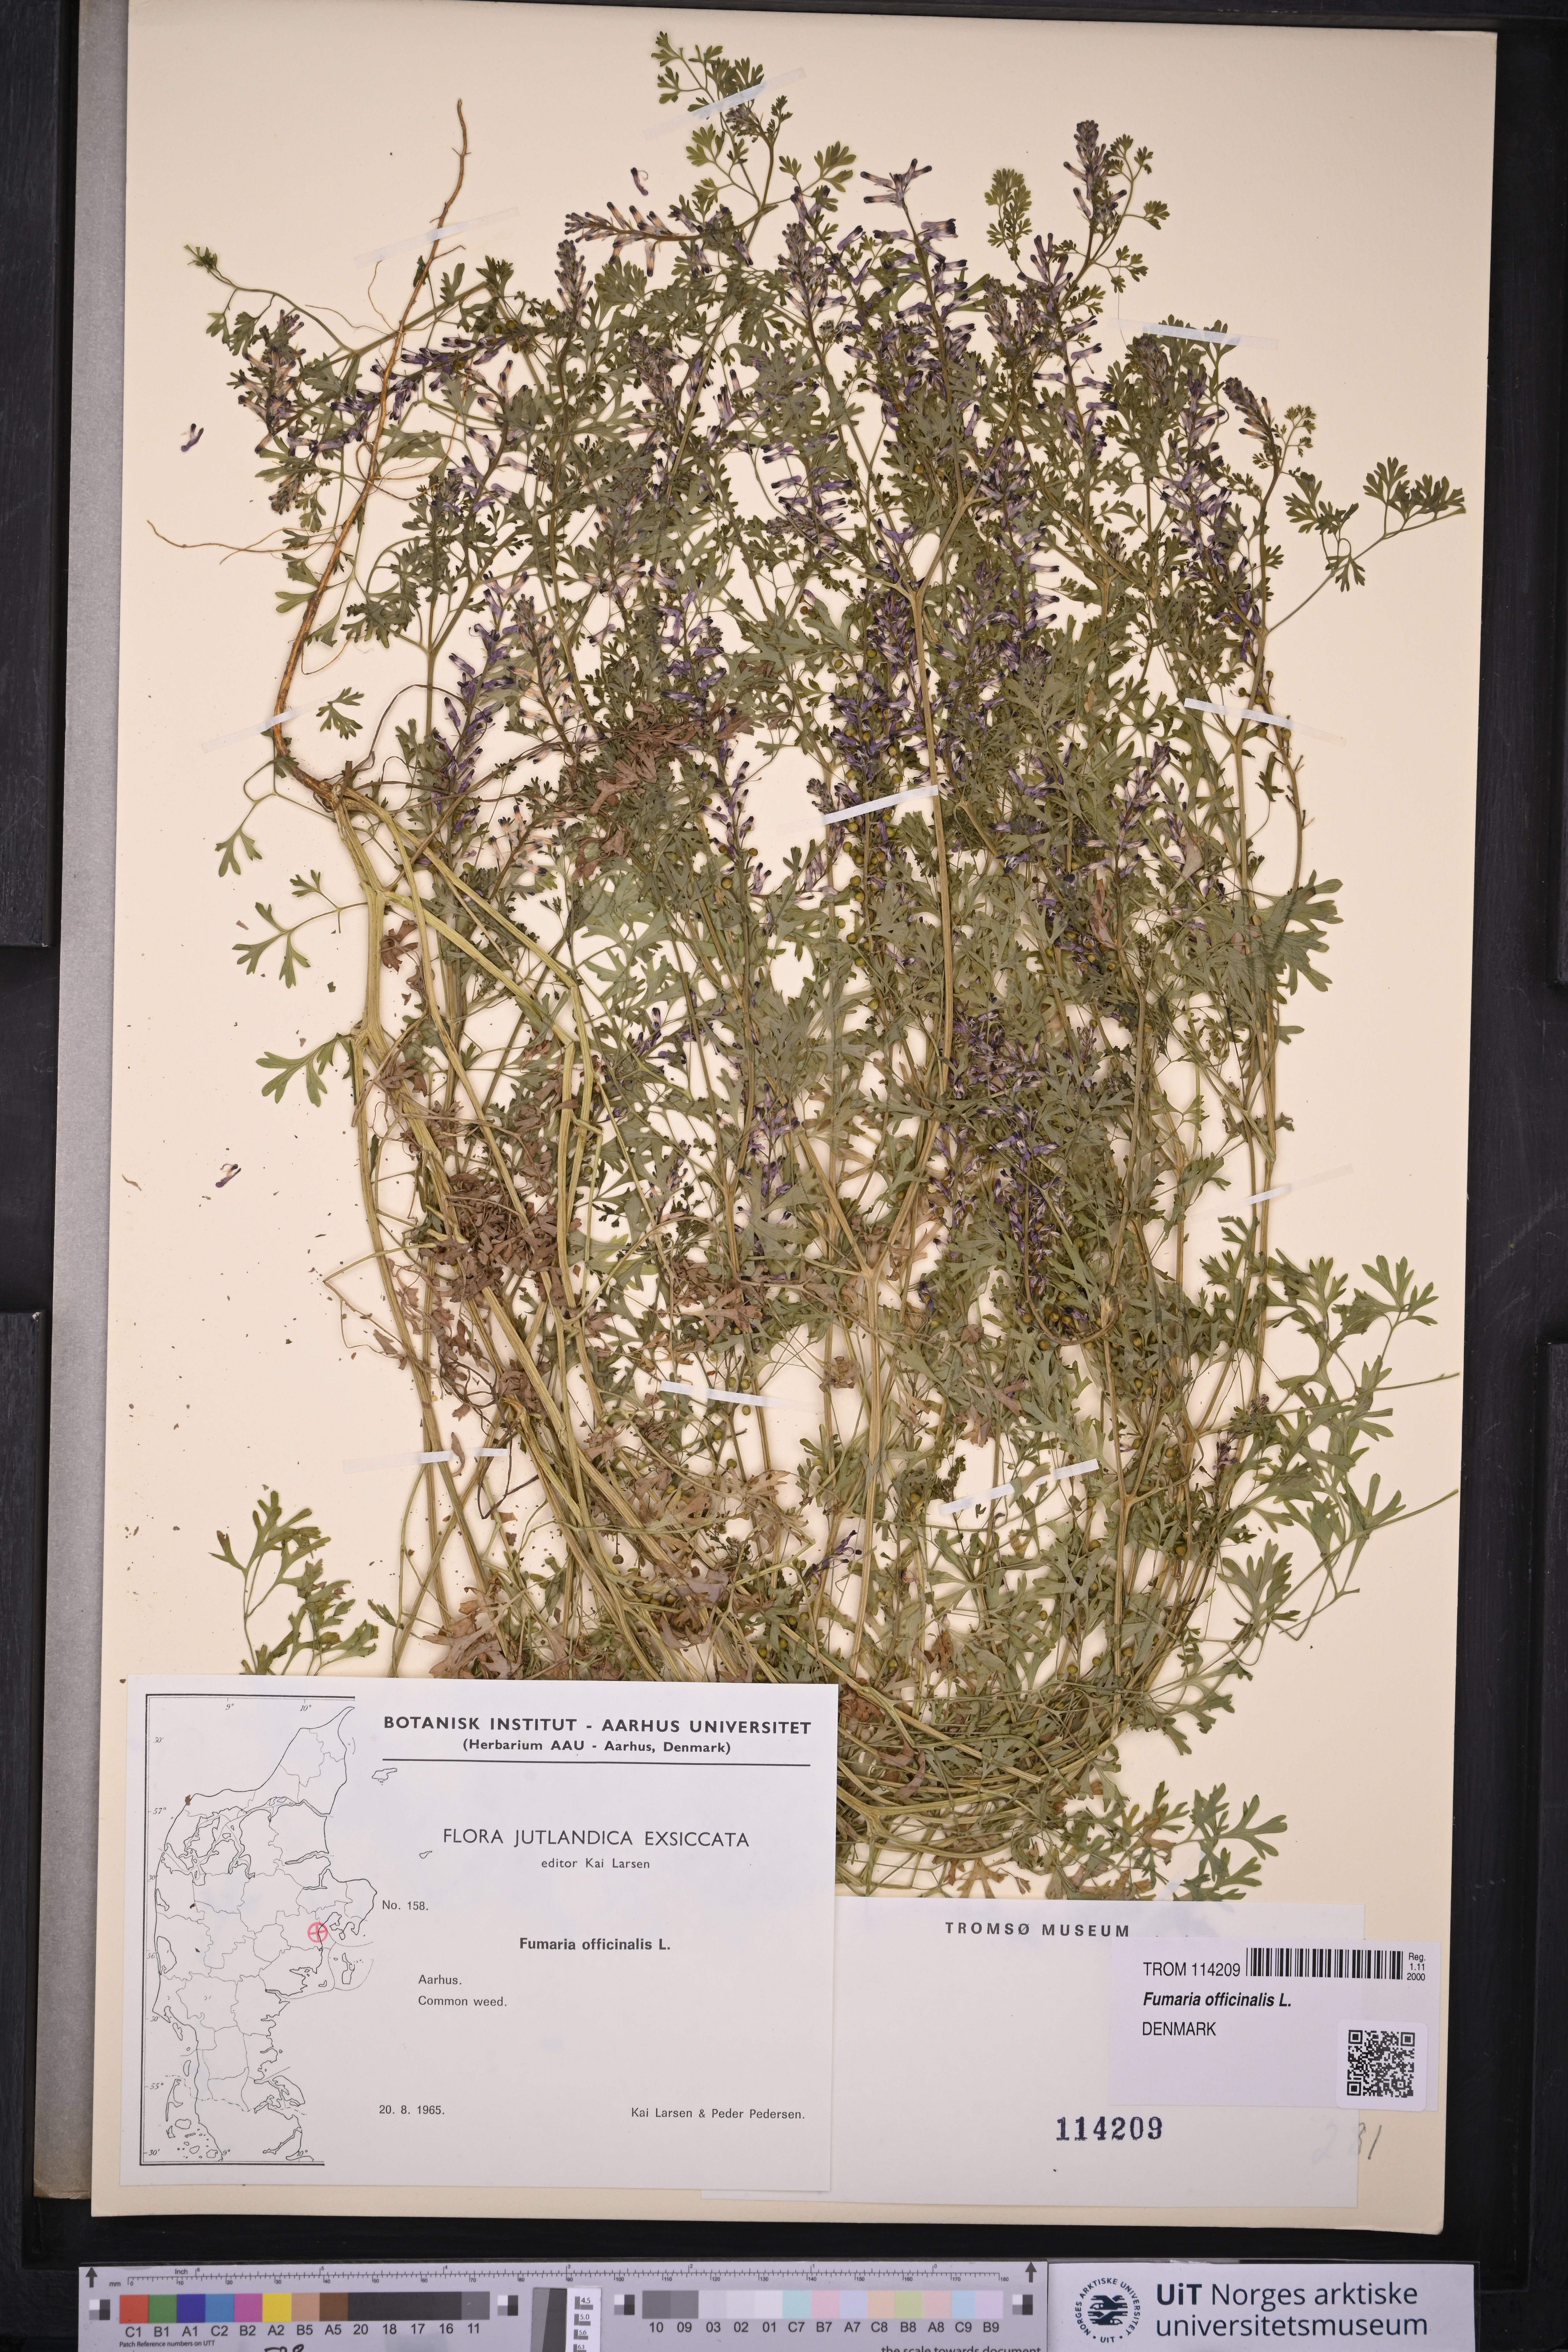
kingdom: Plantae
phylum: Tracheophyta
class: Magnoliopsida
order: Ranunculales
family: Papaveraceae
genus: Fumaria
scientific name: Fumaria officinalis
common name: Common fumitory
